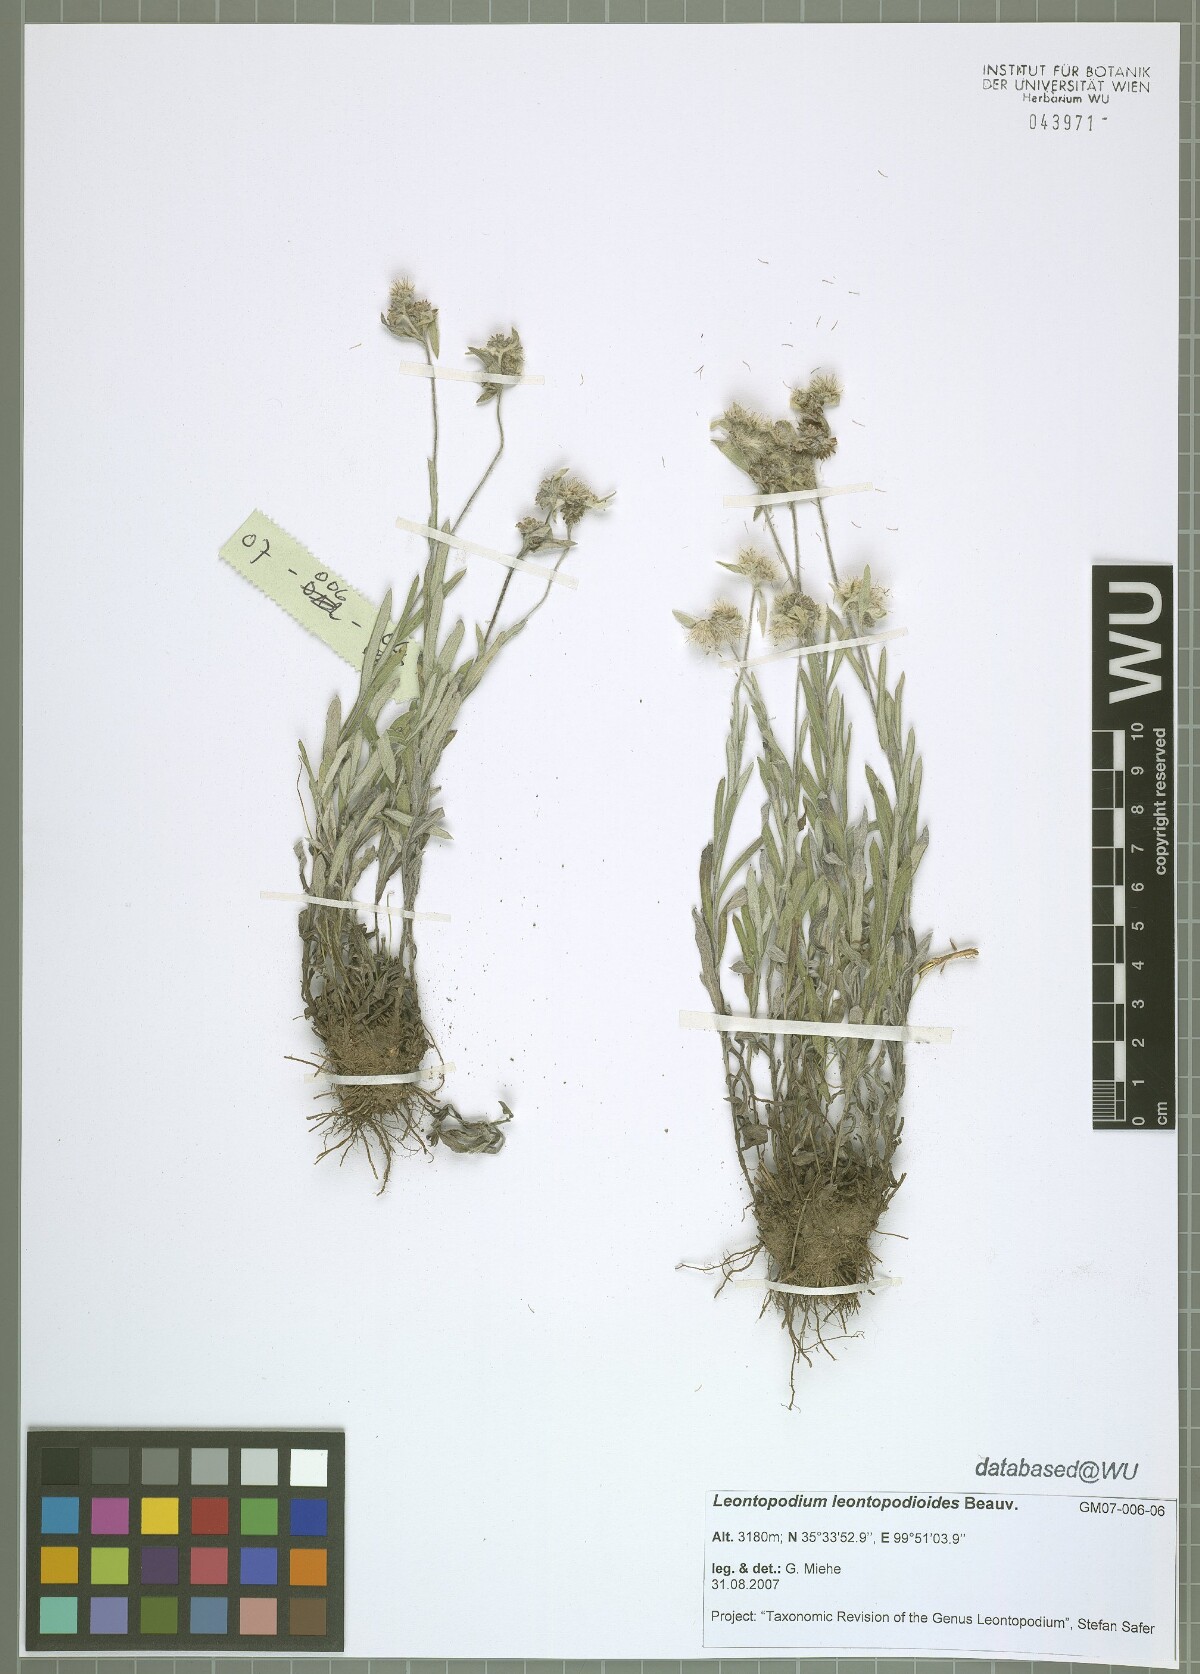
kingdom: Plantae
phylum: Tracheophyta
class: Magnoliopsida
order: Asterales
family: Asteraceae
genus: Leontopodium
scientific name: Leontopodium leontopodioides
